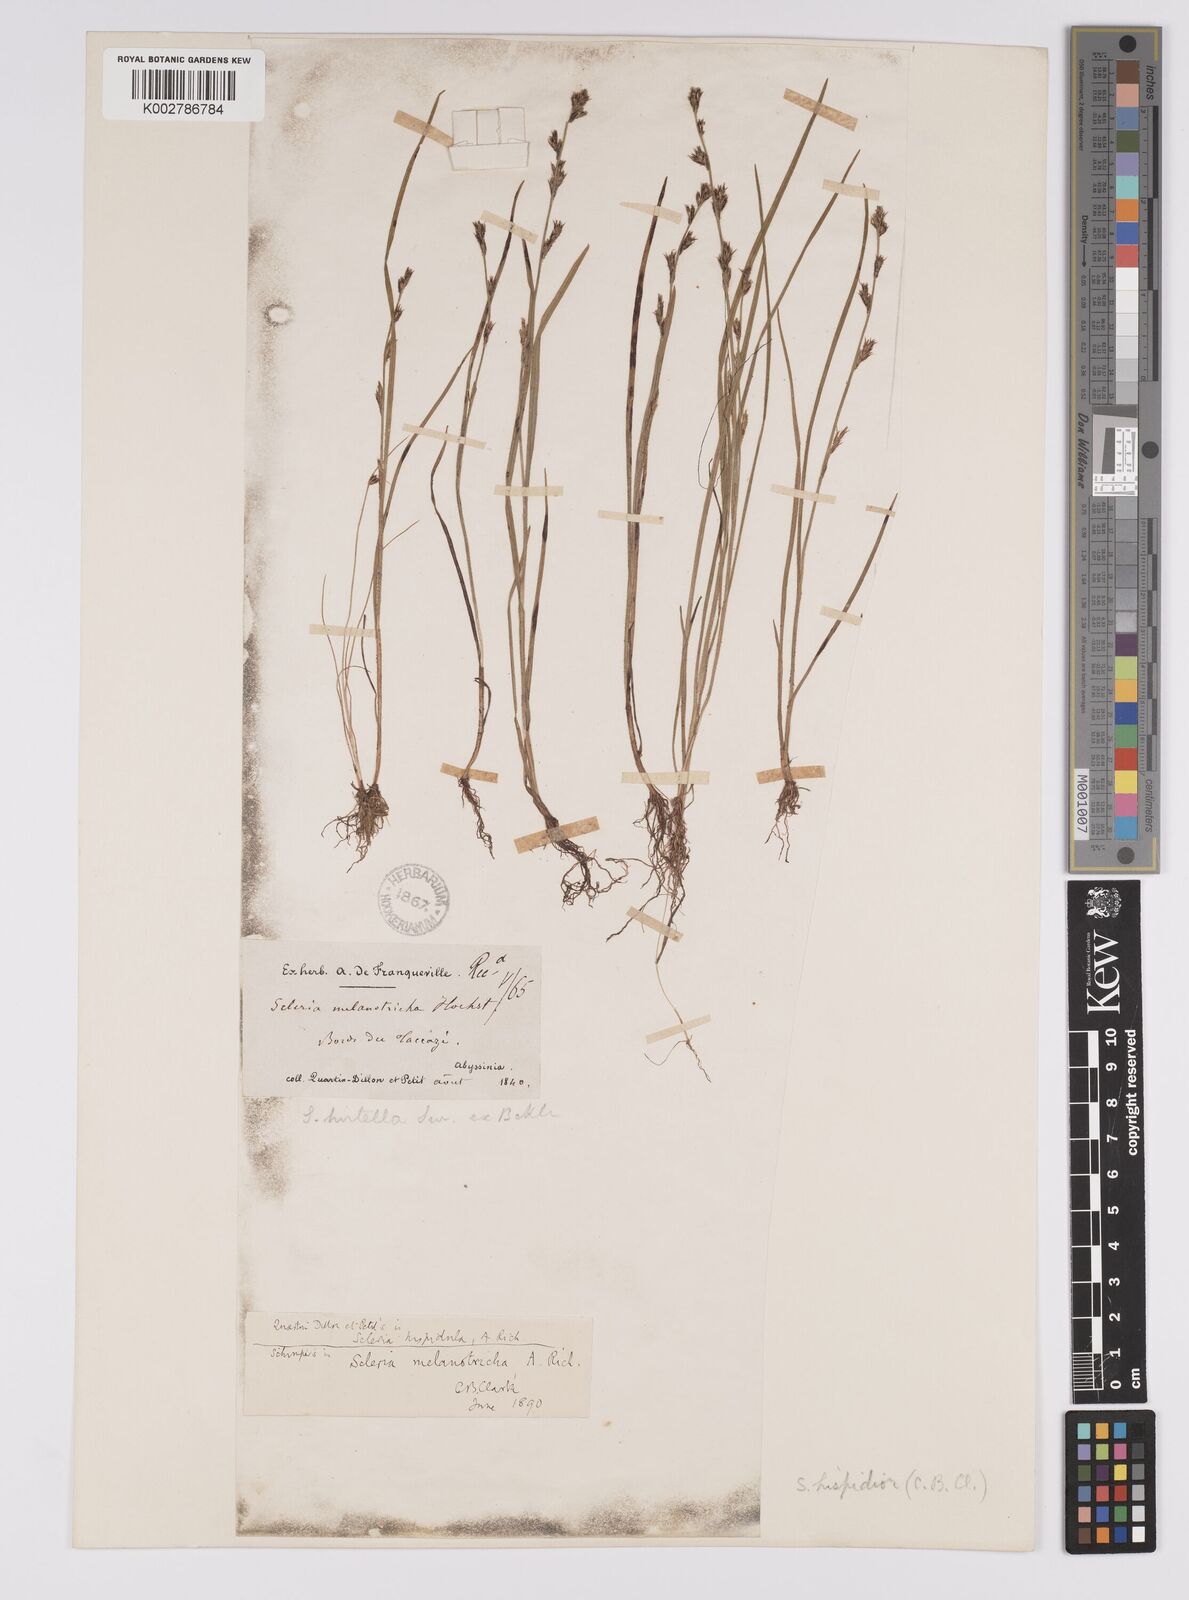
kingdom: Plantae
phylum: Tracheophyta
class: Liliopsida
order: Poales
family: Cyperaceae
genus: Scleria
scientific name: Scleria hispidula
